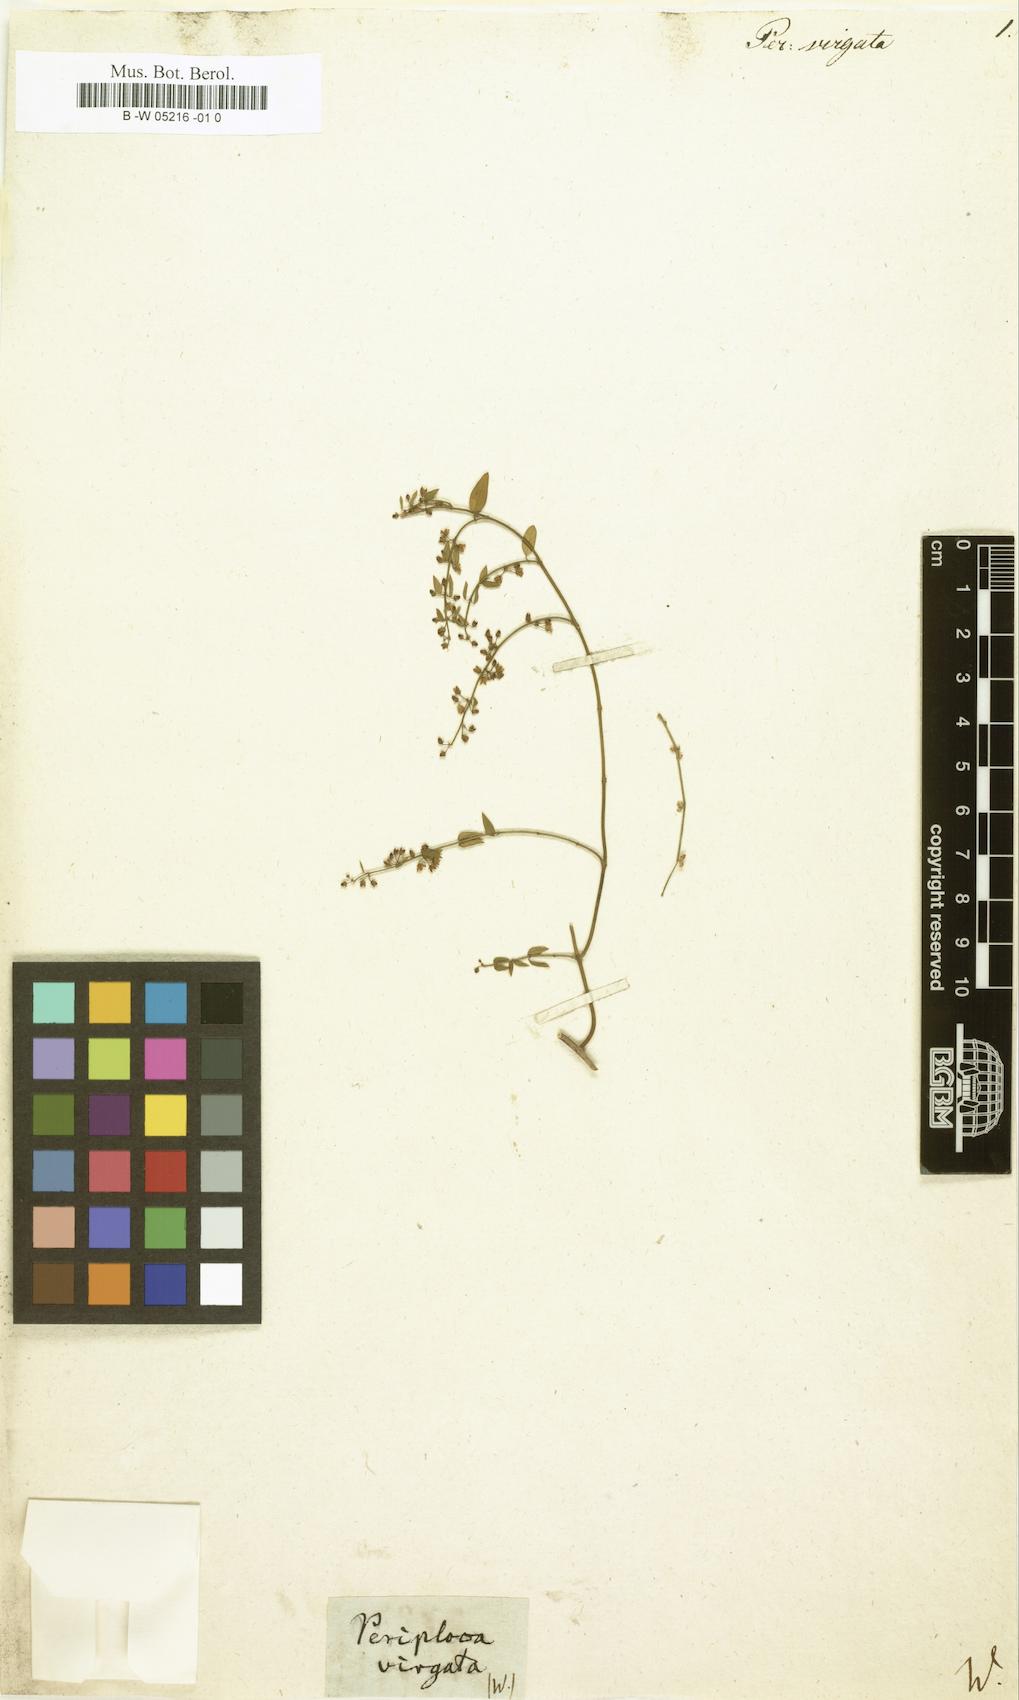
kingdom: Plantae
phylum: Tracheophyta
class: Magnoliopsida
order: Gentianales
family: Apocynaceae
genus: Orthosia
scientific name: Orthosia virgata
